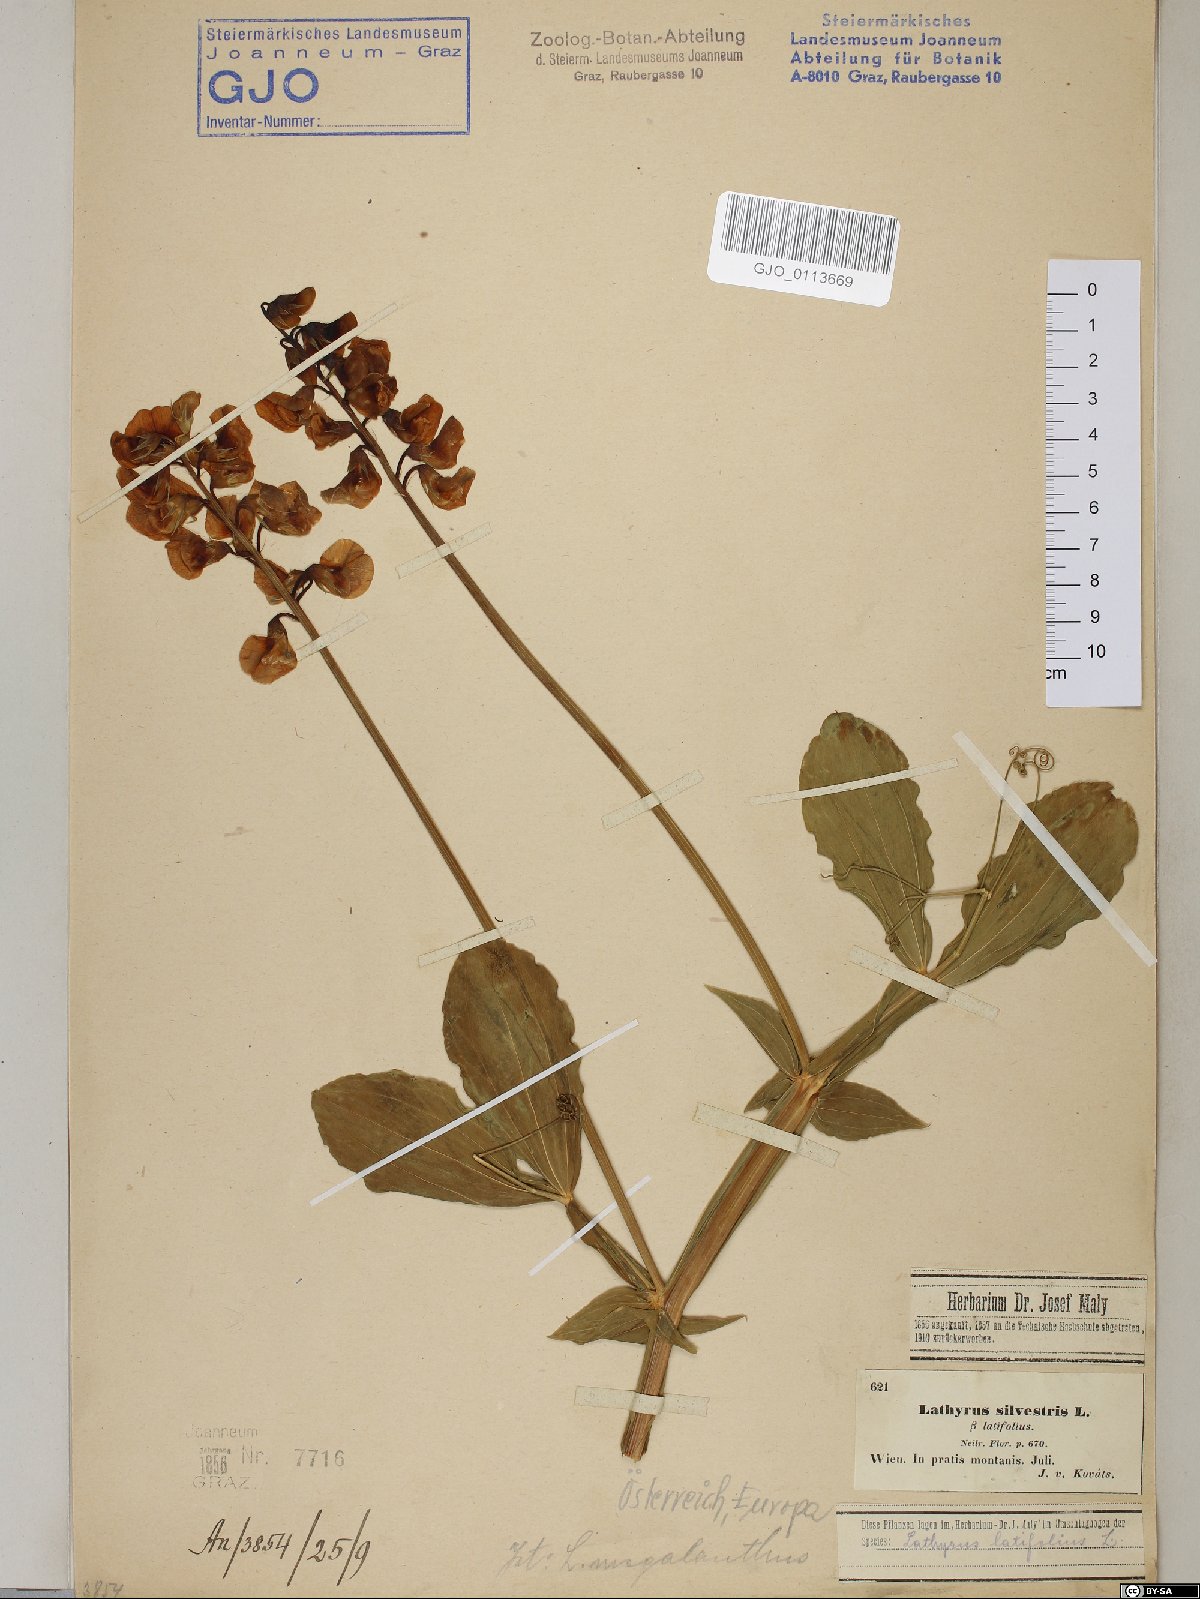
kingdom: Plantae
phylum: Tracheophyta
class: Magnoliopsida
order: Fabales
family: Fabaceae
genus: Lathyrus
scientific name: Lathyrus latifolius
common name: Perennial pea
